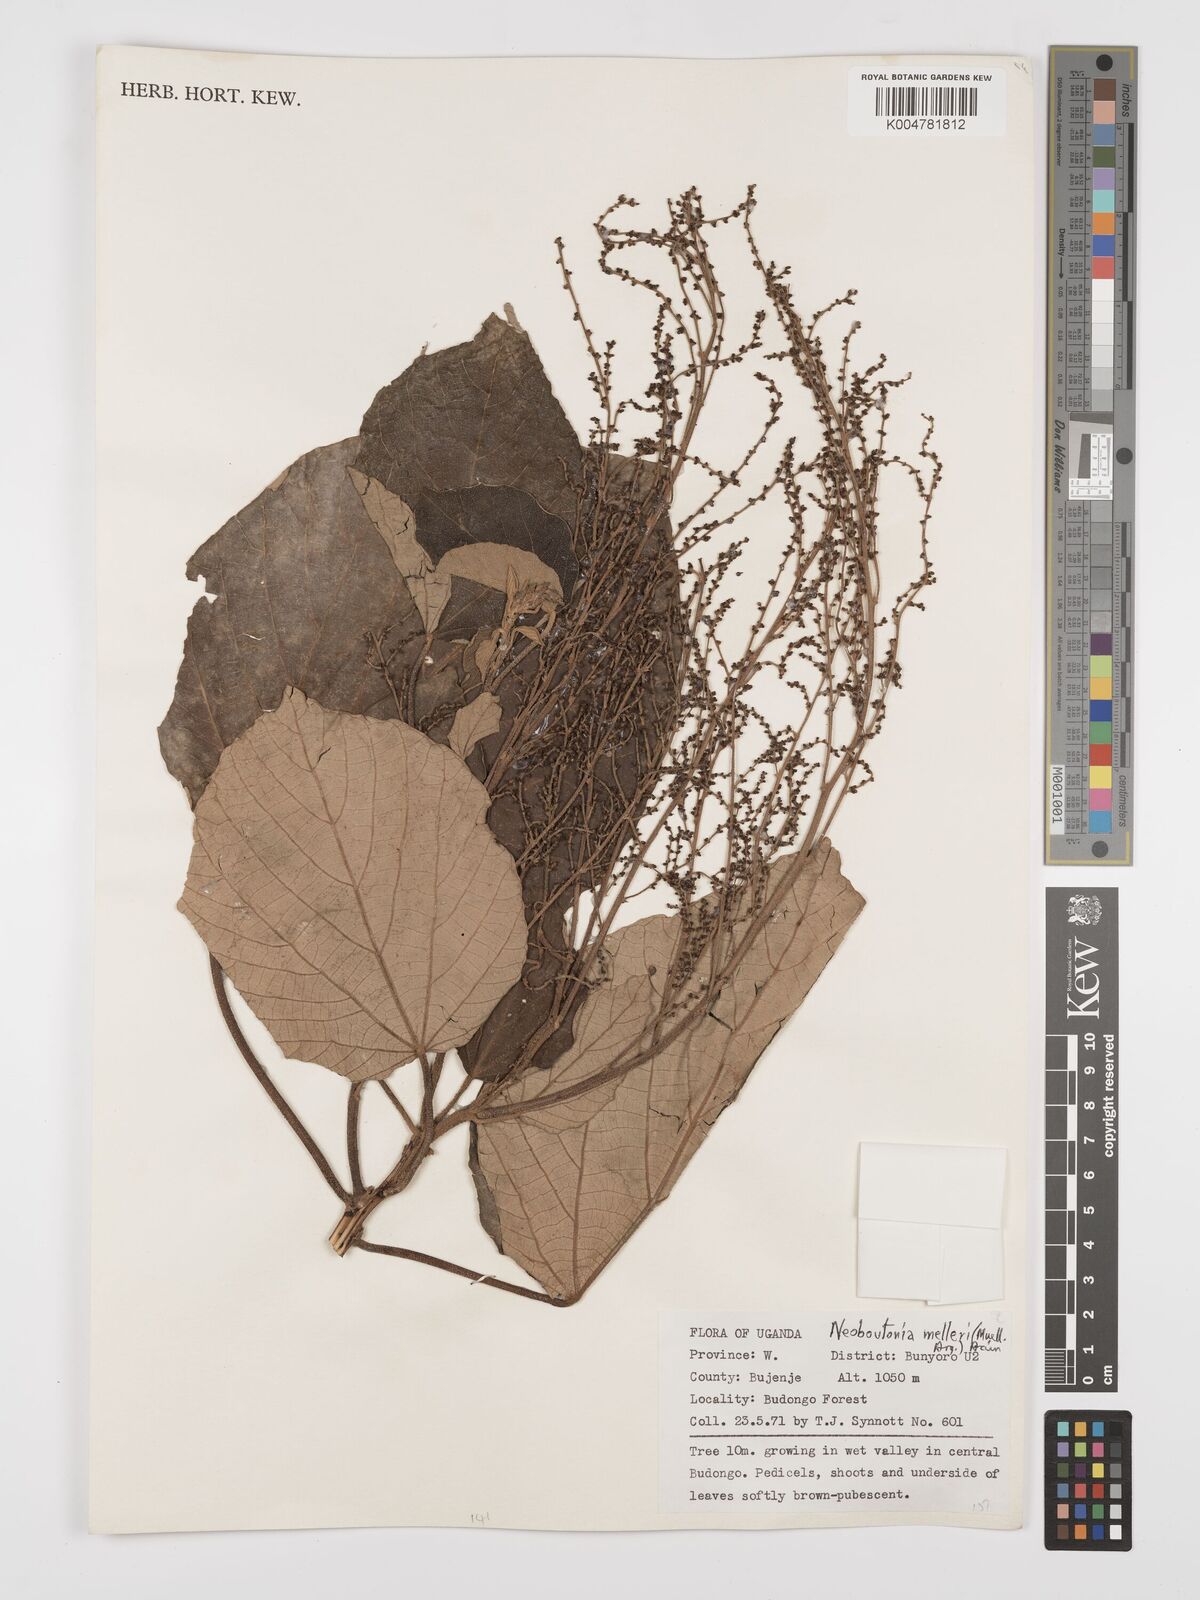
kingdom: Plantae
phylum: Tracheophyta
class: Magnoliopsida
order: Malpighiales
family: Euphorbiaceae
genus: Neoboutonia
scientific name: Neoboutonia melleri
